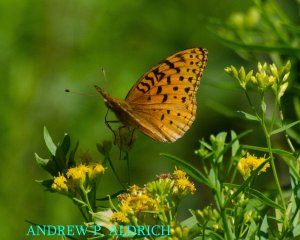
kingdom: Animalia
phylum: Arthropoda
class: Insecta
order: Lepidoptera
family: Nymphalidae
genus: Speyeria
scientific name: Speyeria aphrodite
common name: Aphrodite Fritillary
